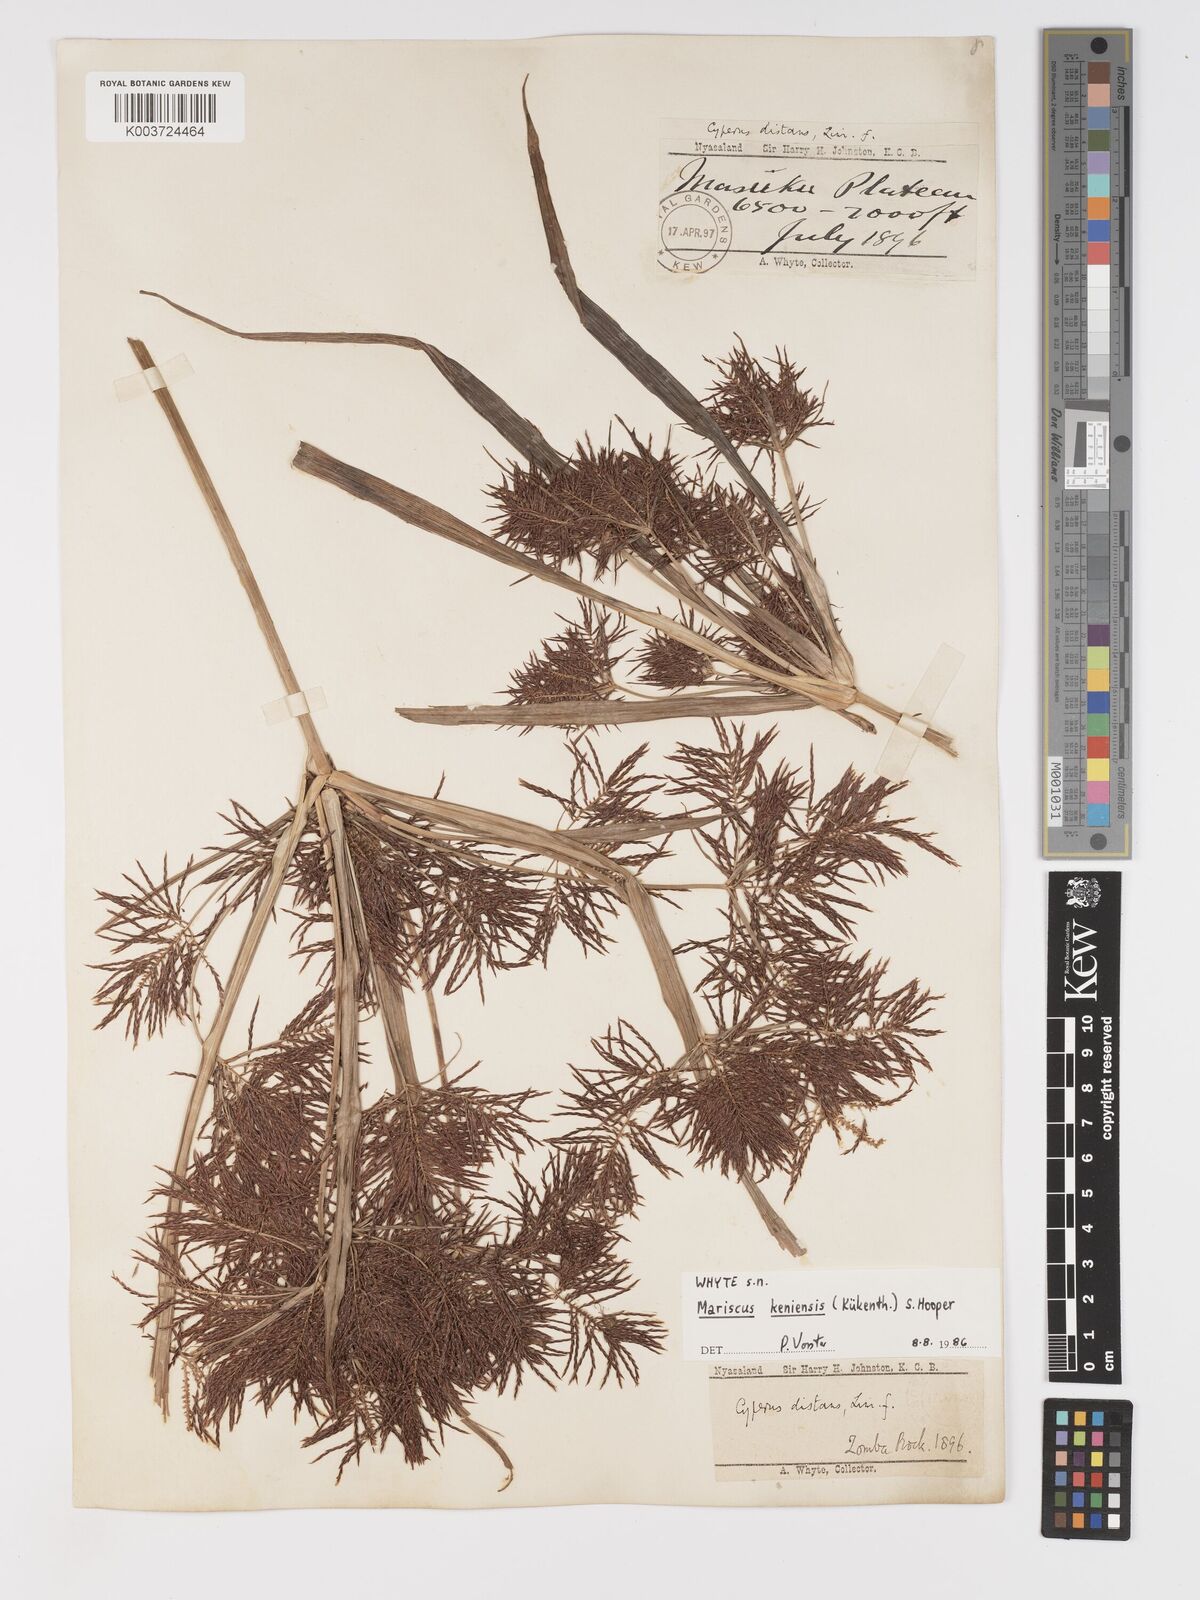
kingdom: Plantae
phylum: Tracheophyta
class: Liliopsida
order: Poales
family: Cyperaceae
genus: Cyperus
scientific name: Cyperus
